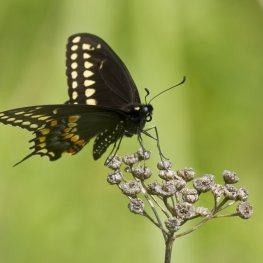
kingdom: Animalia
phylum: Arthropoda
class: Insecta
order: Lepidoptera
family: Papilionidae
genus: Papilio
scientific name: Papilio polyxenes
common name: Black Swallowtail
